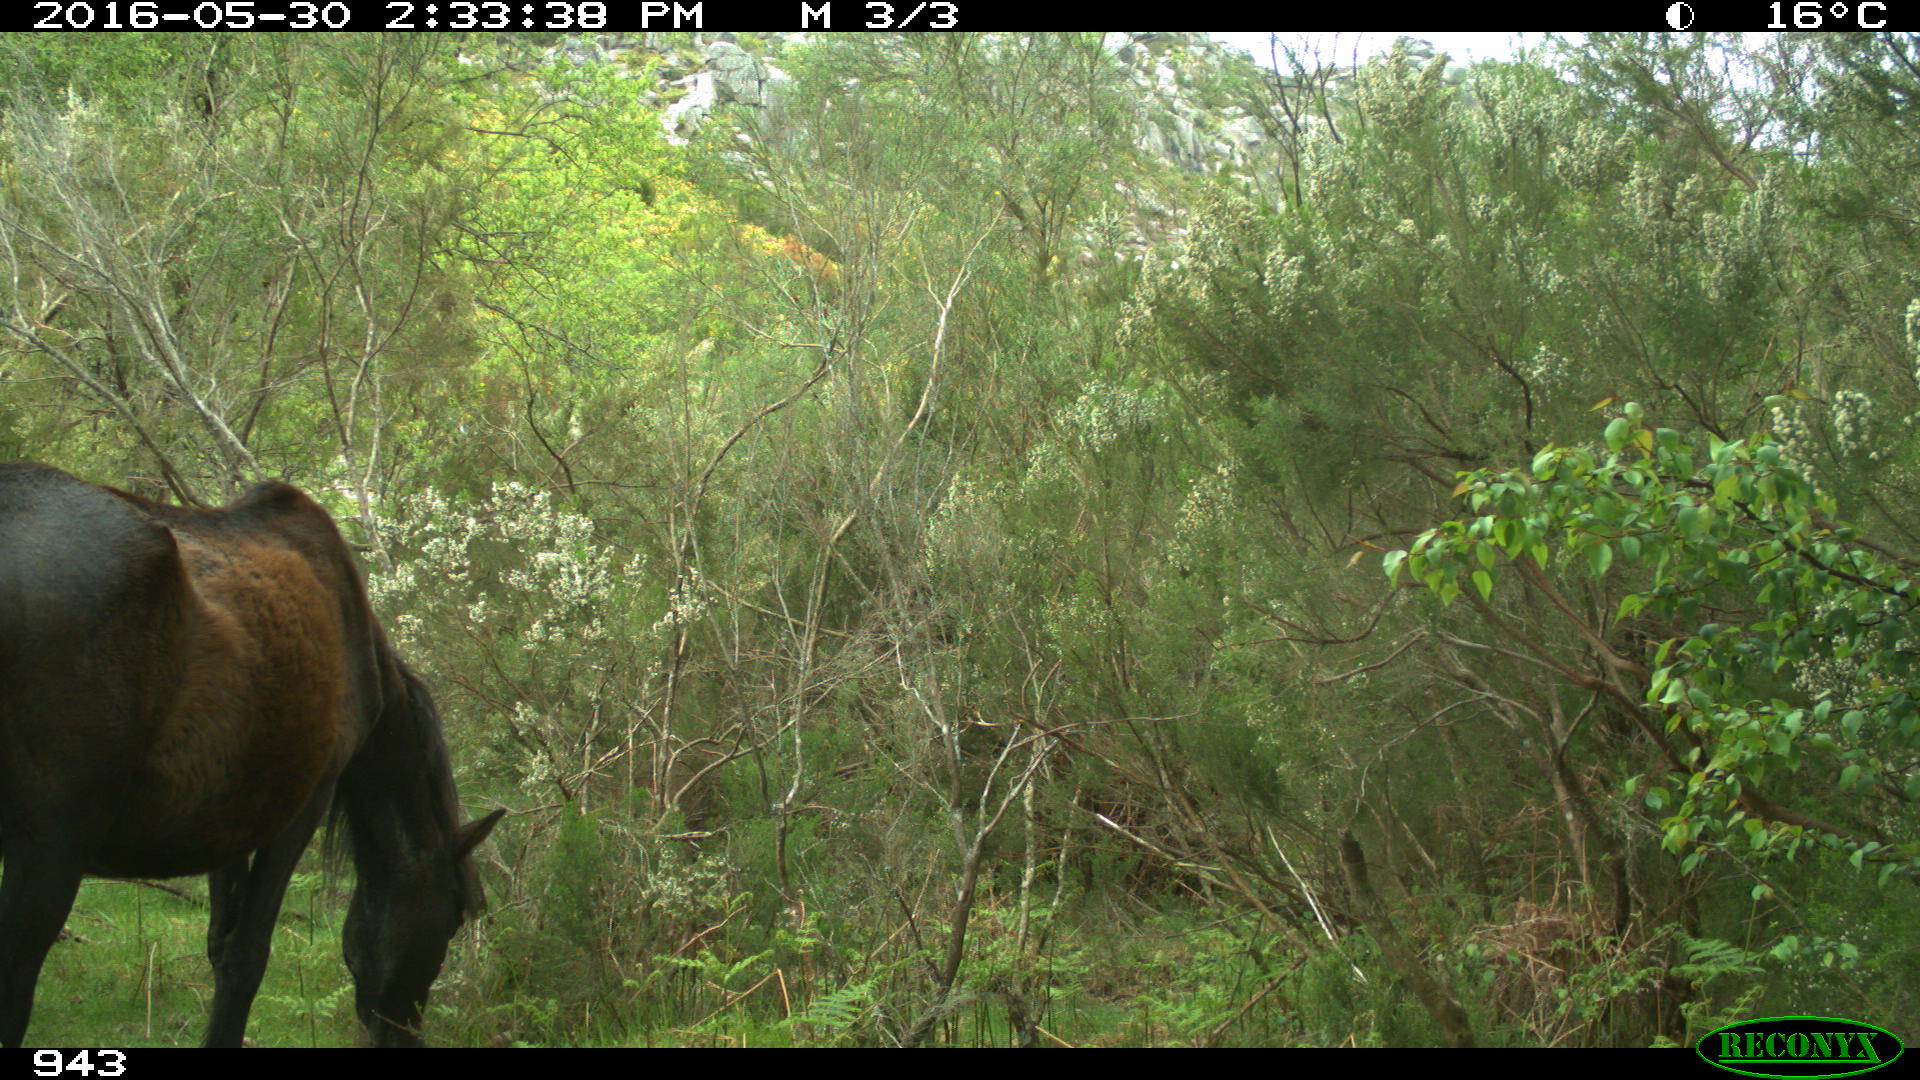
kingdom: Animalia
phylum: Chordata
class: Mammalia
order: Perissodactyla
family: Equidae
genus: Equus
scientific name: Equus caballus
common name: Horse
